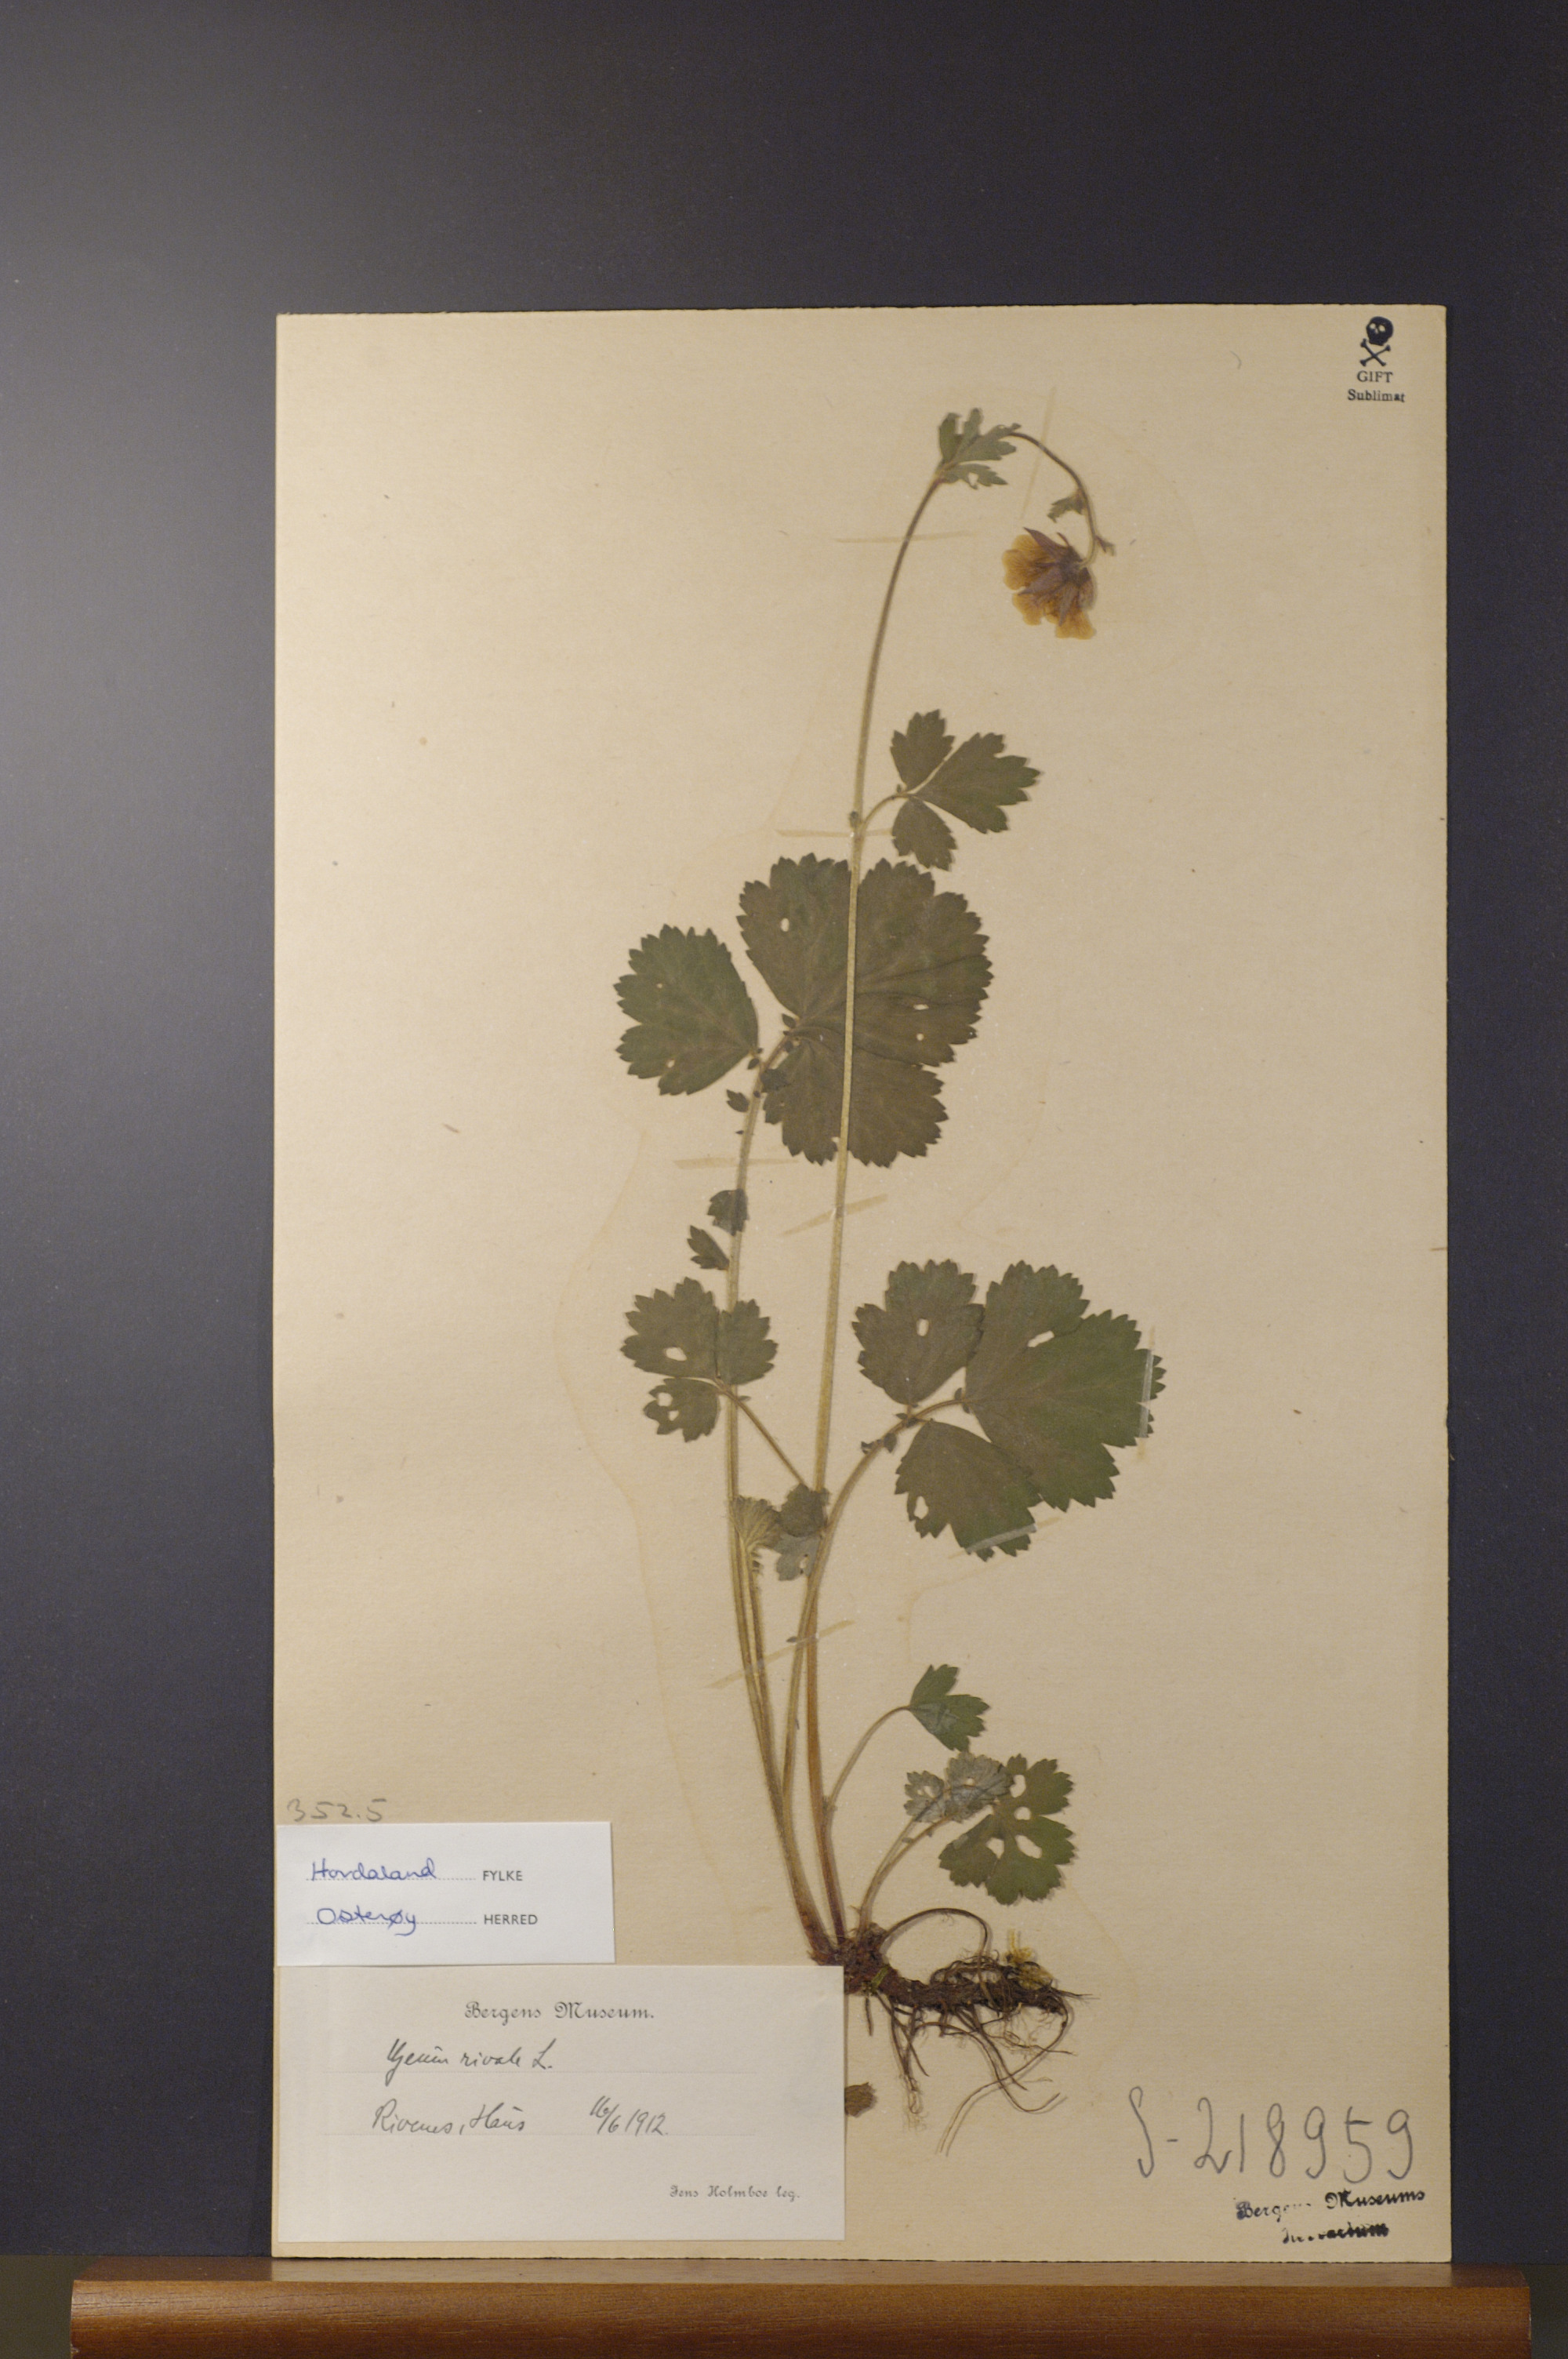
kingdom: Plantae
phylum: Tracheophyta
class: Magnoliopsida
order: Rosales
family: Rosaceae
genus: Geum
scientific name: Geum rivale
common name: Water avens
